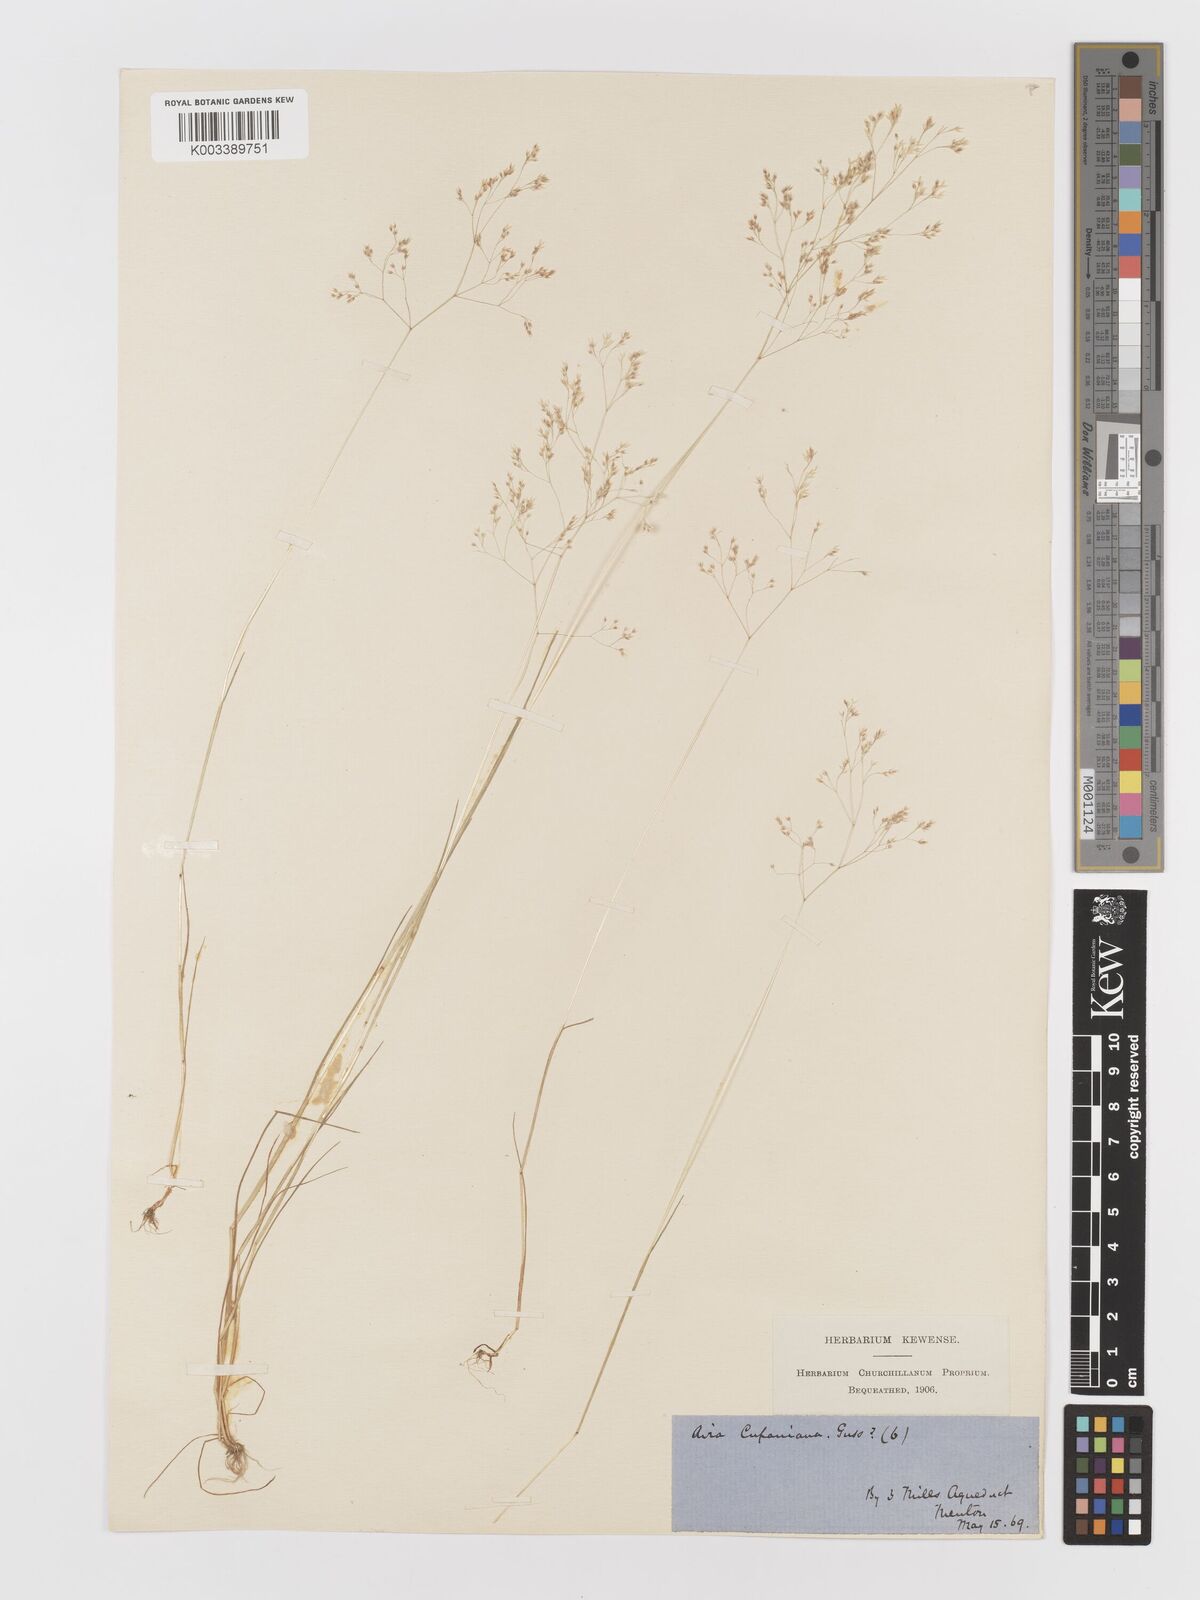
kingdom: Plantae
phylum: Tracheophyta
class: Liliopsida
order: Poales
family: Poaceae
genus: Aira
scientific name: Aira cupaniana
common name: Silver hairgrass
